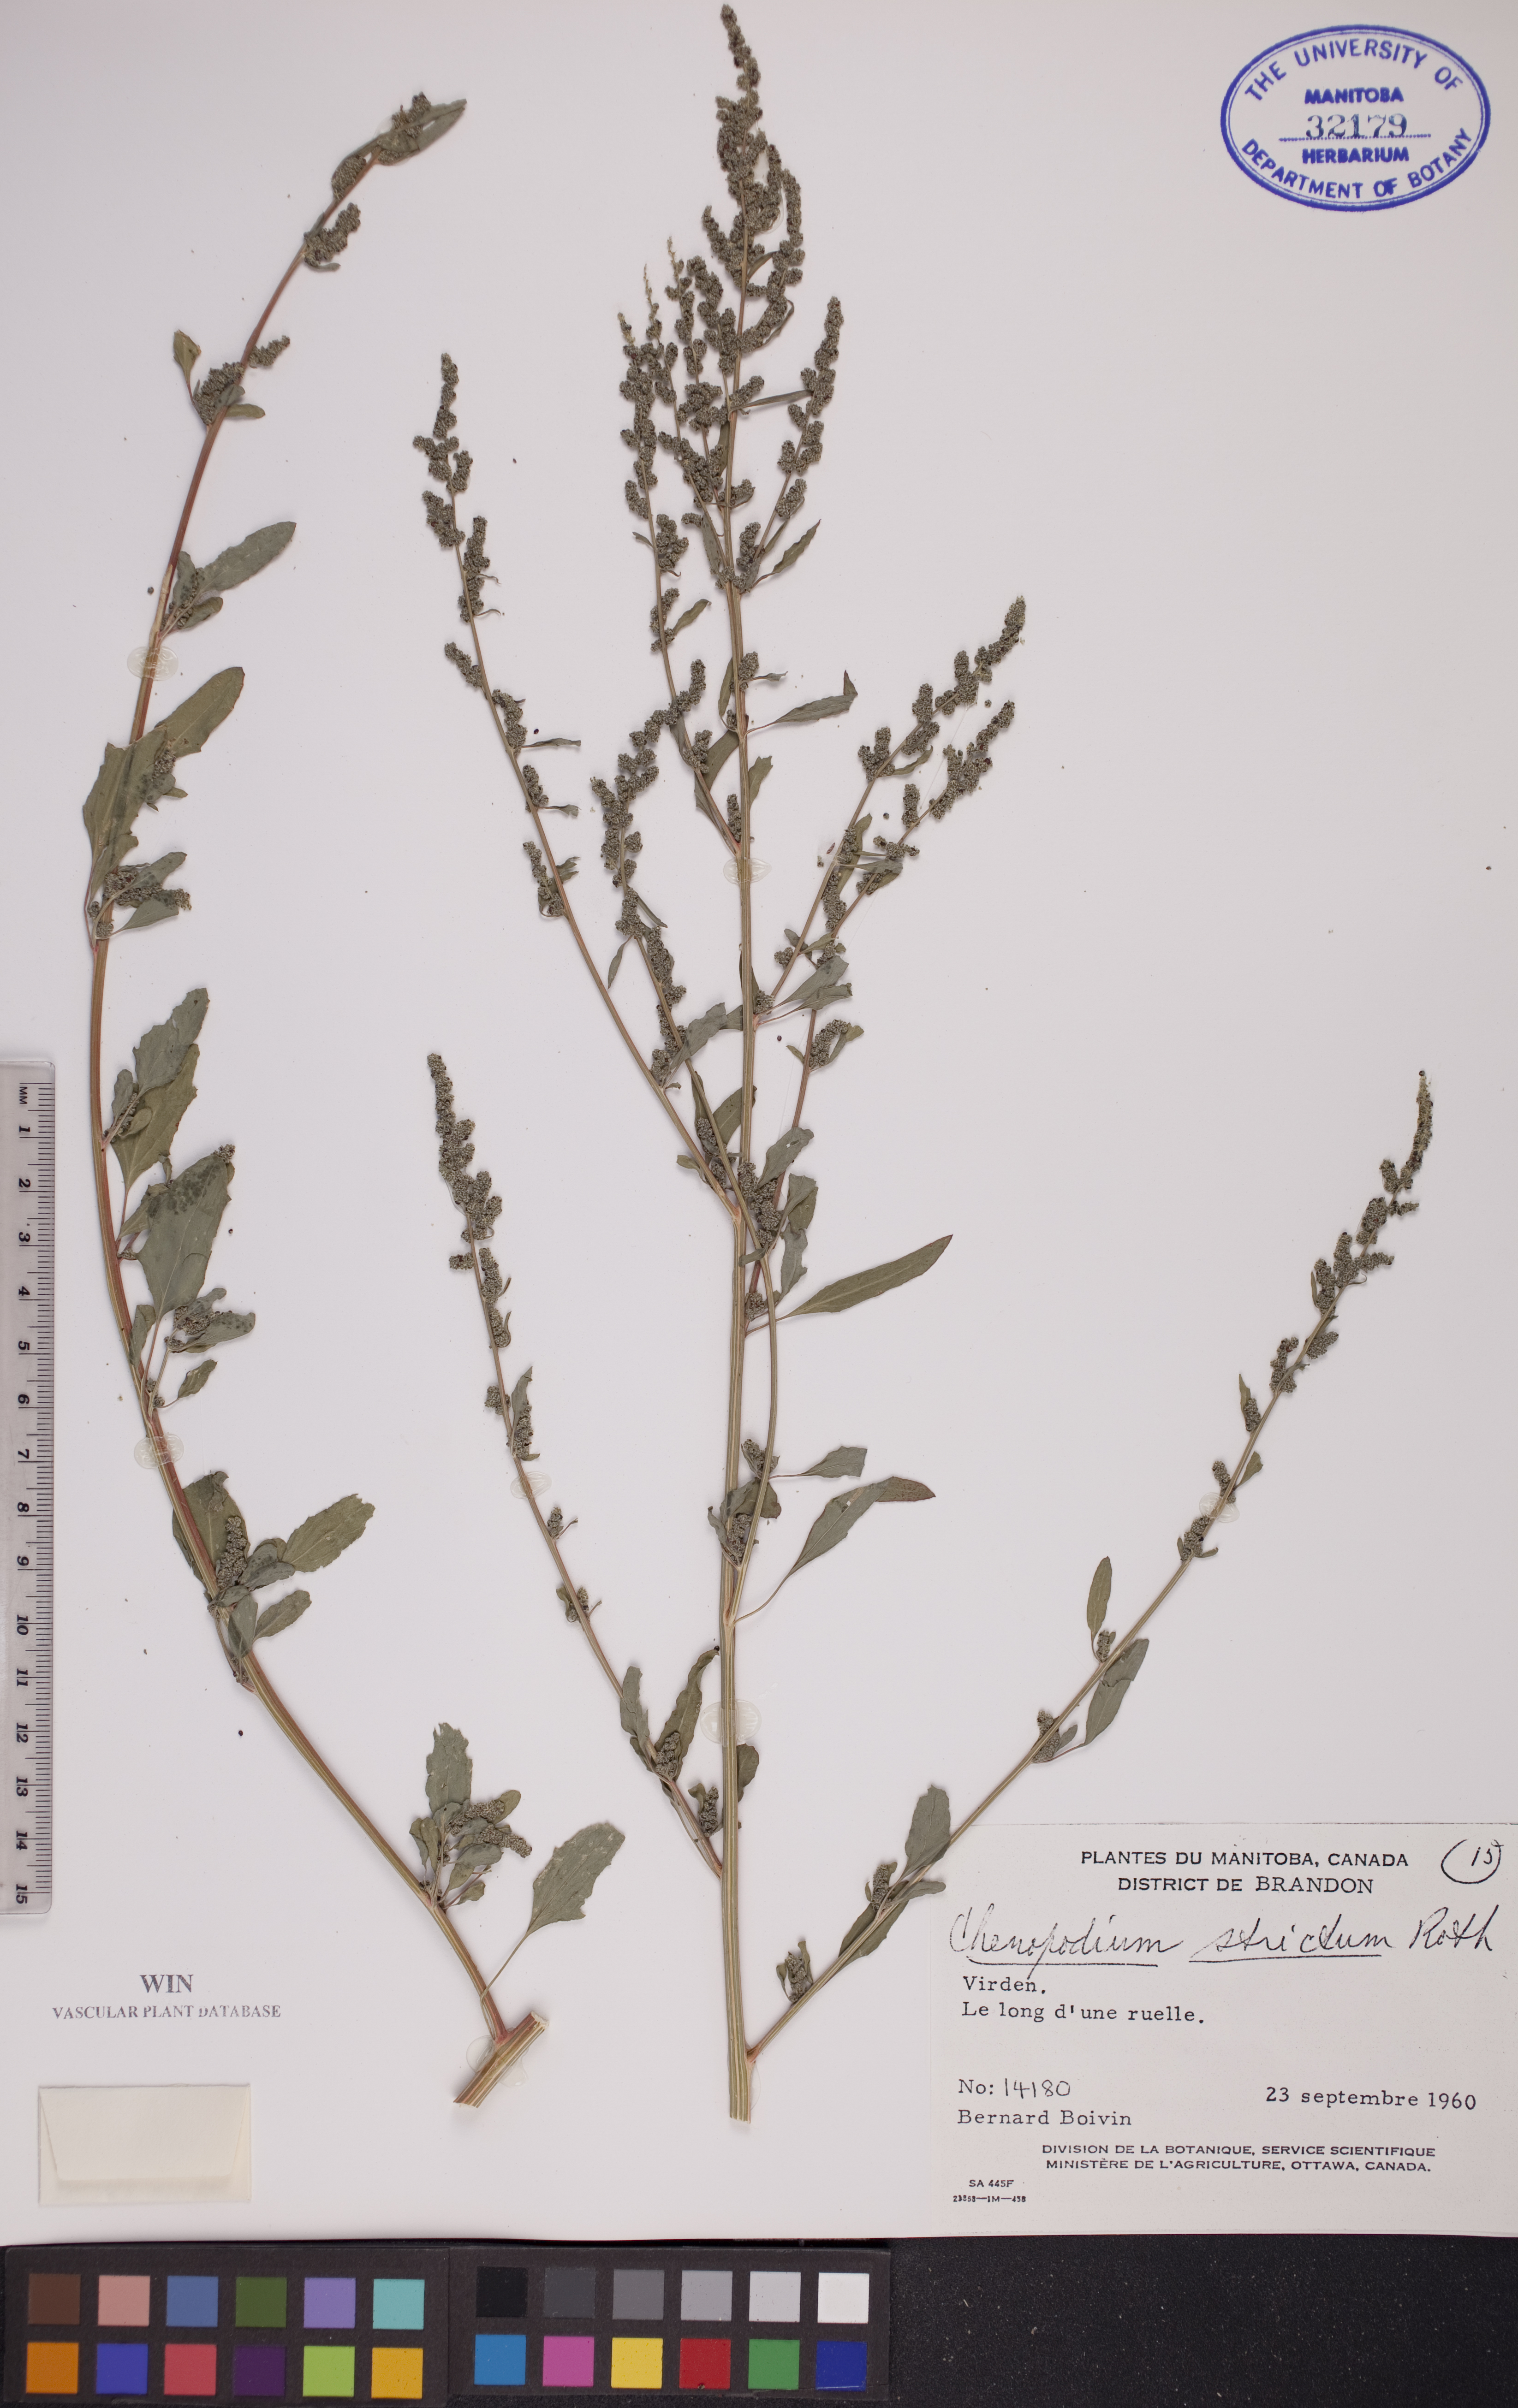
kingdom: Plantae
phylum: Tracheophyta
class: Magnoliopsida
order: Caryophyllales
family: Amaranthaceae
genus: Chenopodium
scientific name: Chenopodium album
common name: Fat-hen
